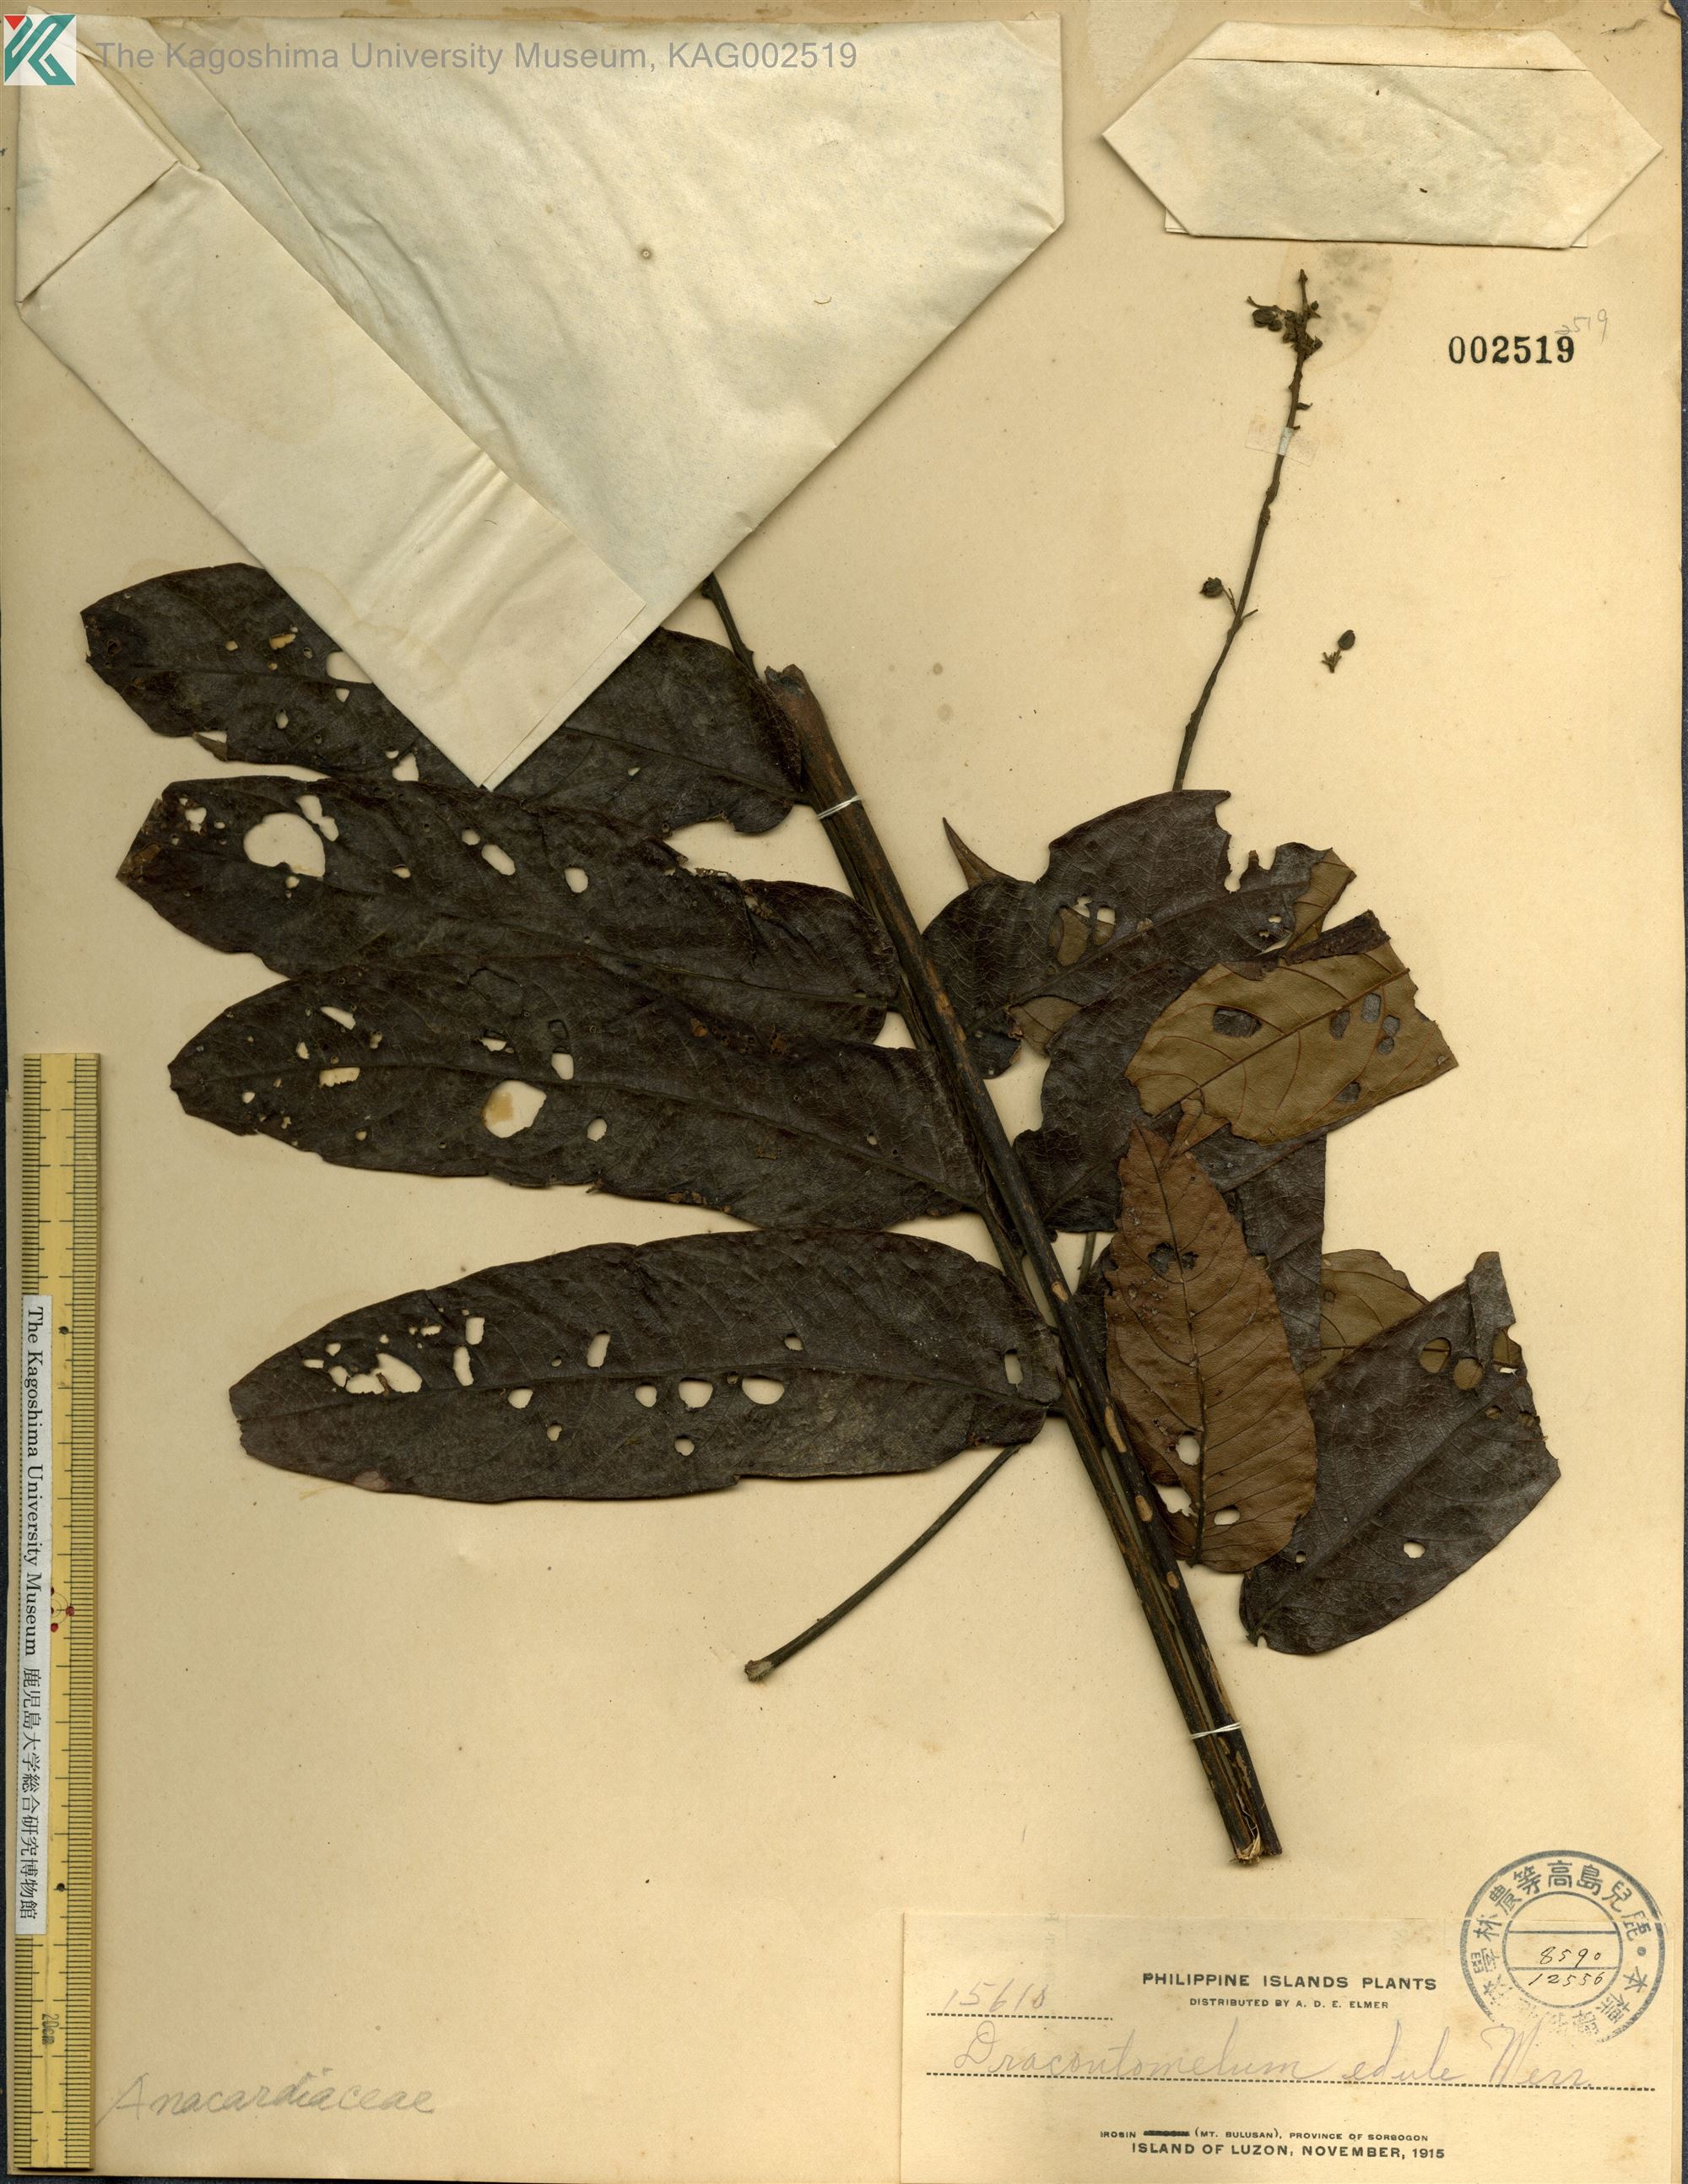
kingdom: Plantae
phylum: Tracheophyta
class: Magnoliopsida
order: Sapindales
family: Anacardiaceae
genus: Dracontomelon
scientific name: Dracontomelon dao
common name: Argus pheasant-tree
